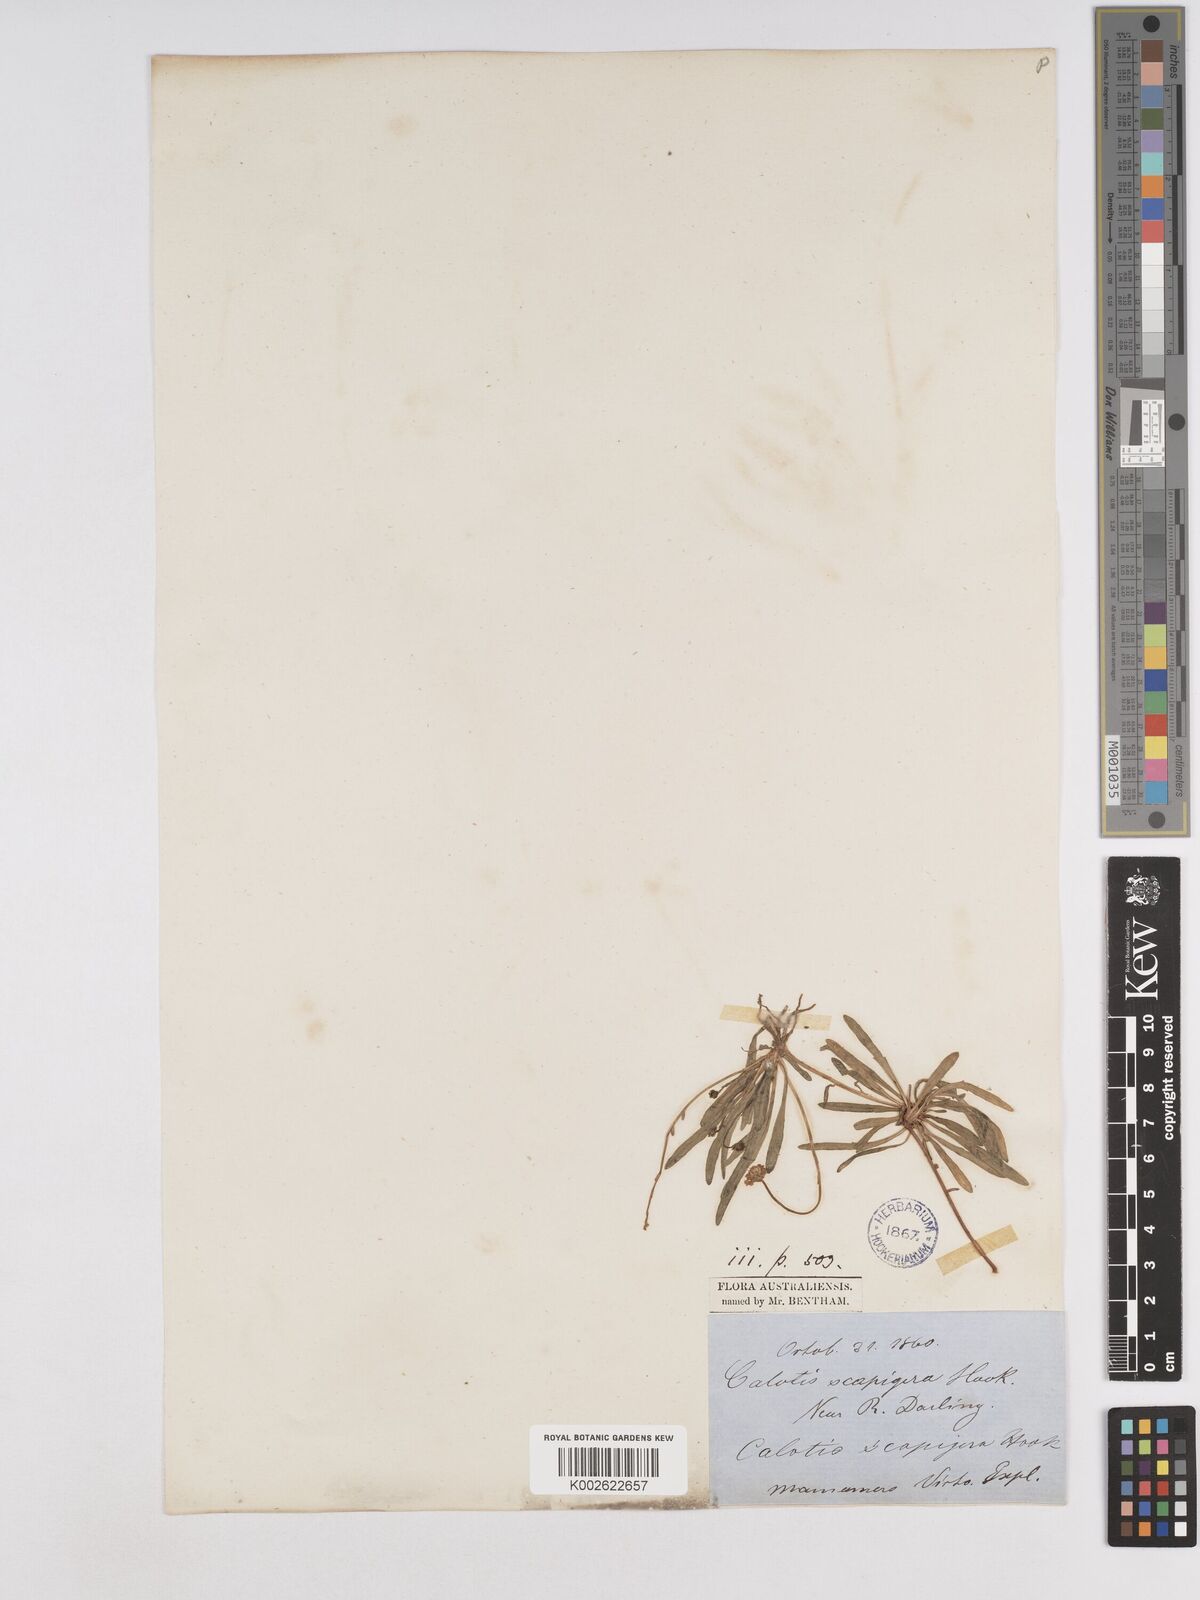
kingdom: Plantae
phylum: Tracheophyta
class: Magnoliopsida
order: Asterales
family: Asteraceae
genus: Calotis
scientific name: Calotis scapigera
